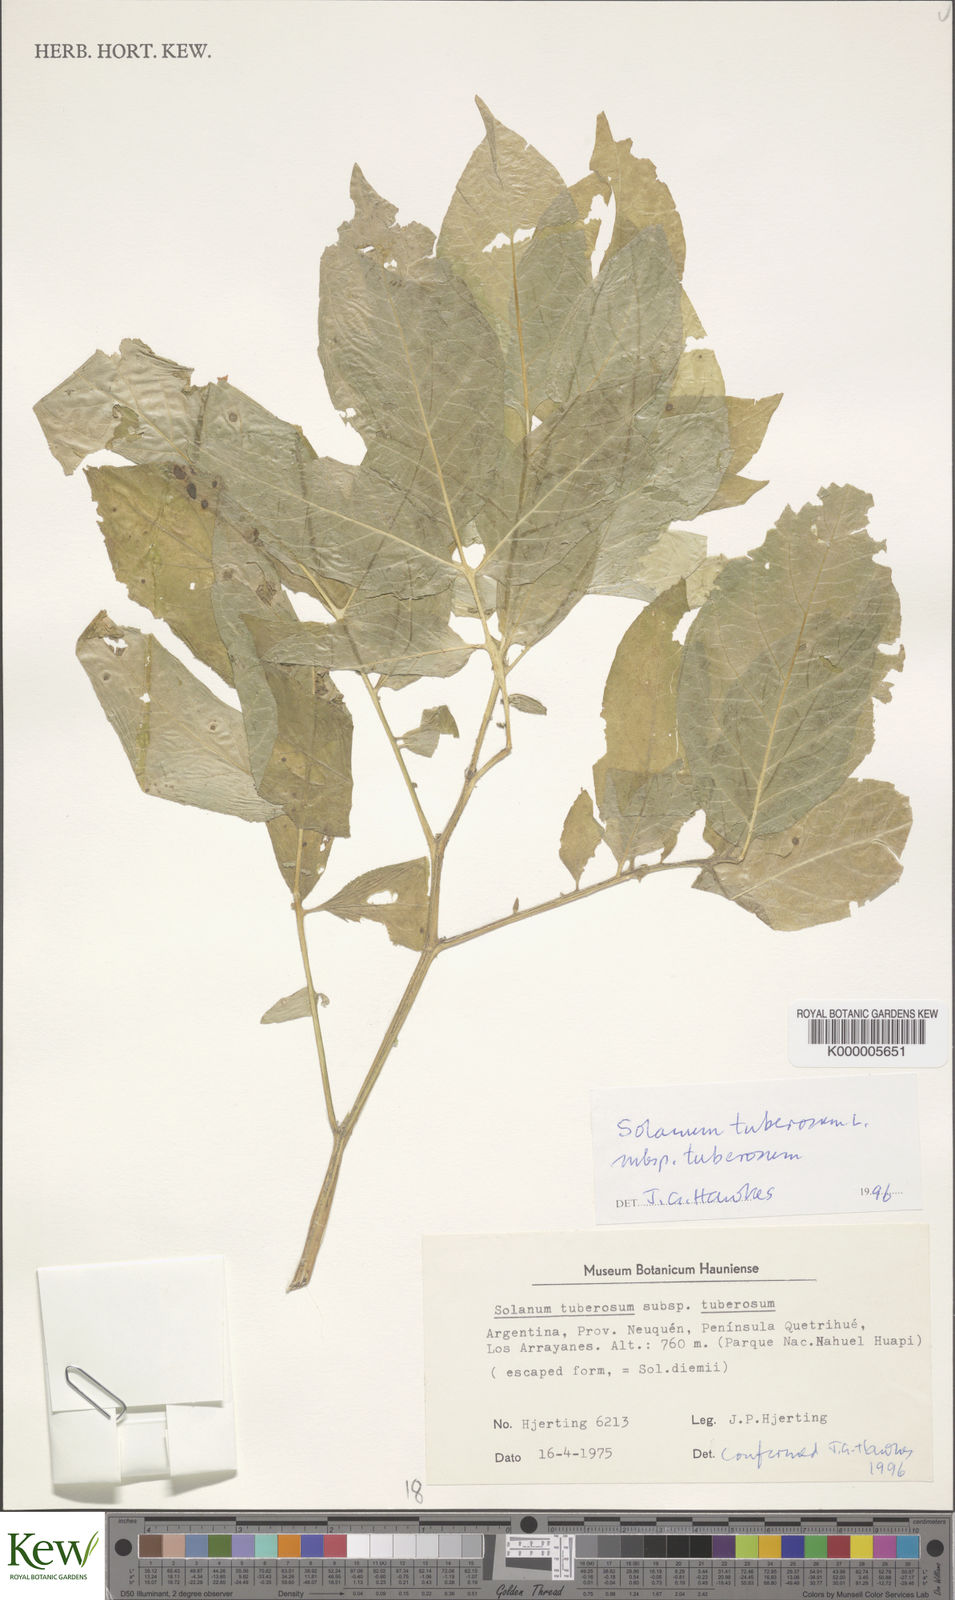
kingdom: Plantae
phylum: Tracheophyta
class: Magnoliopsida
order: Solanales
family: Solanaceae
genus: Solanum
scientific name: Solanum tuberosum
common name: Potato
